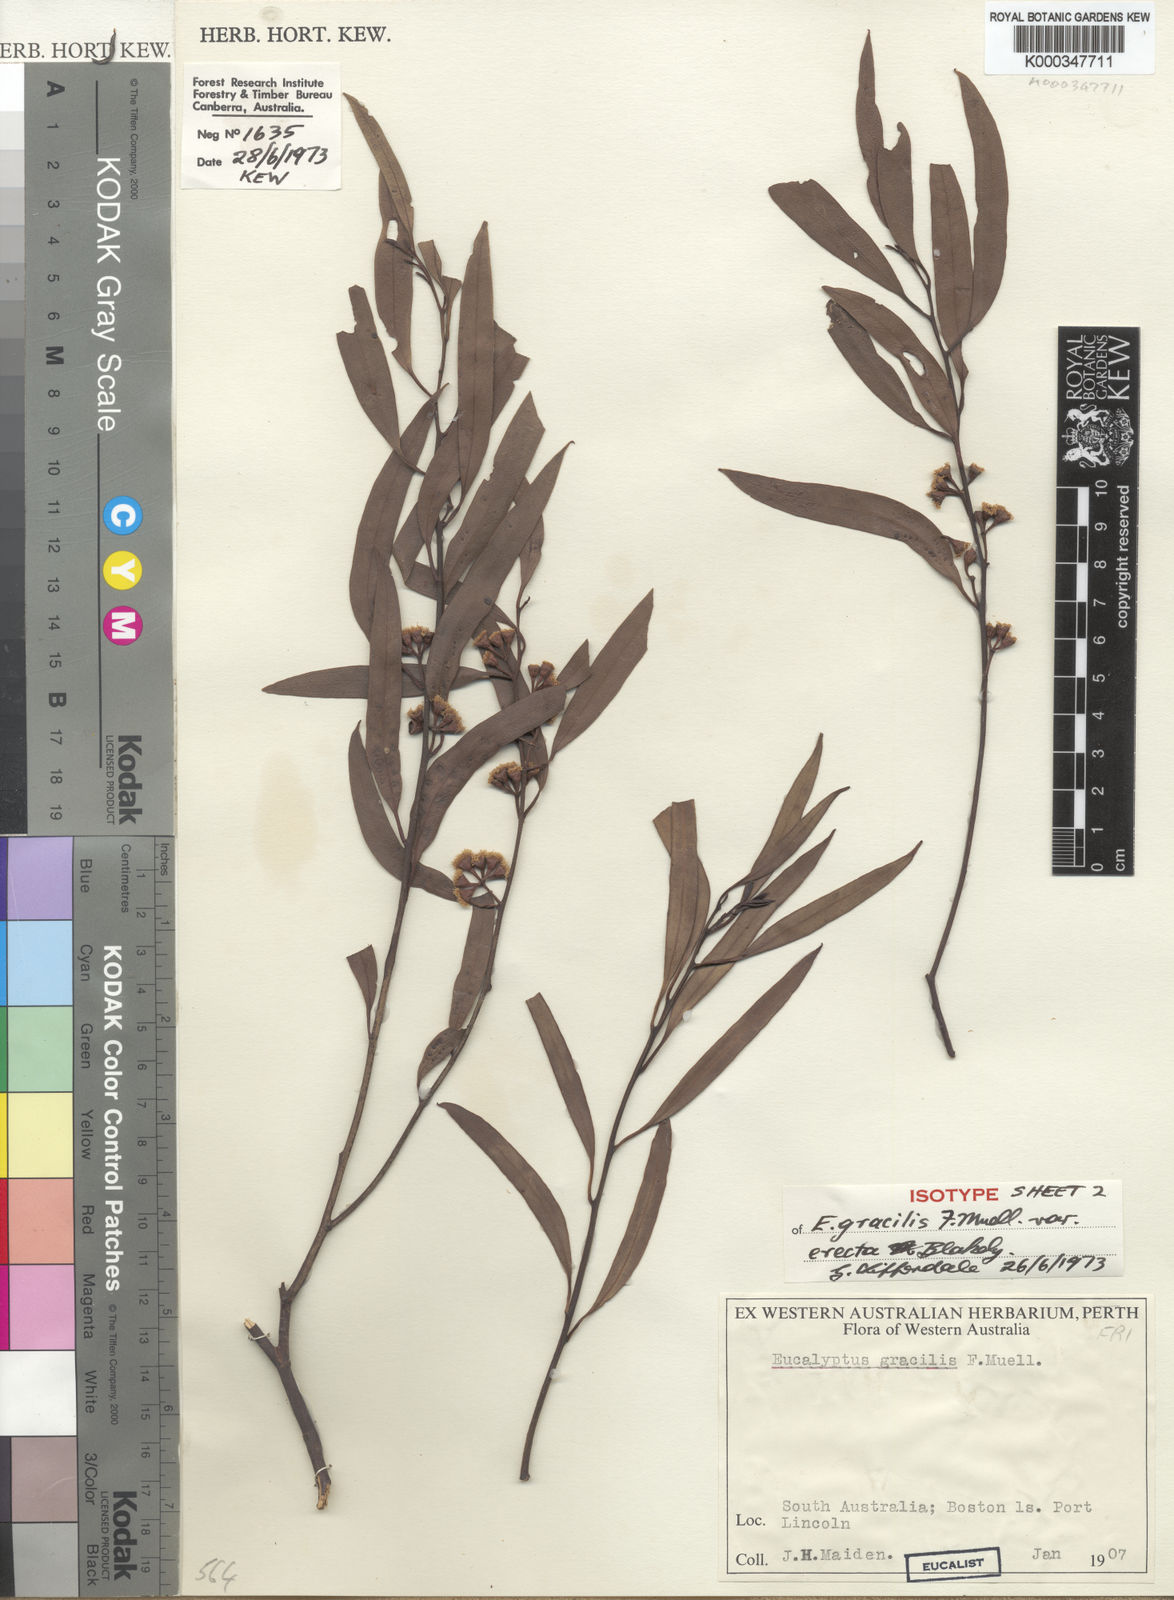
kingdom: Plantae
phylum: Tracheophyta
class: Magnoliopsida
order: Myrtales
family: Myrtaceae
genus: Eucalyptus
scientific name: Eucalyptus gracilis
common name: White mallee
